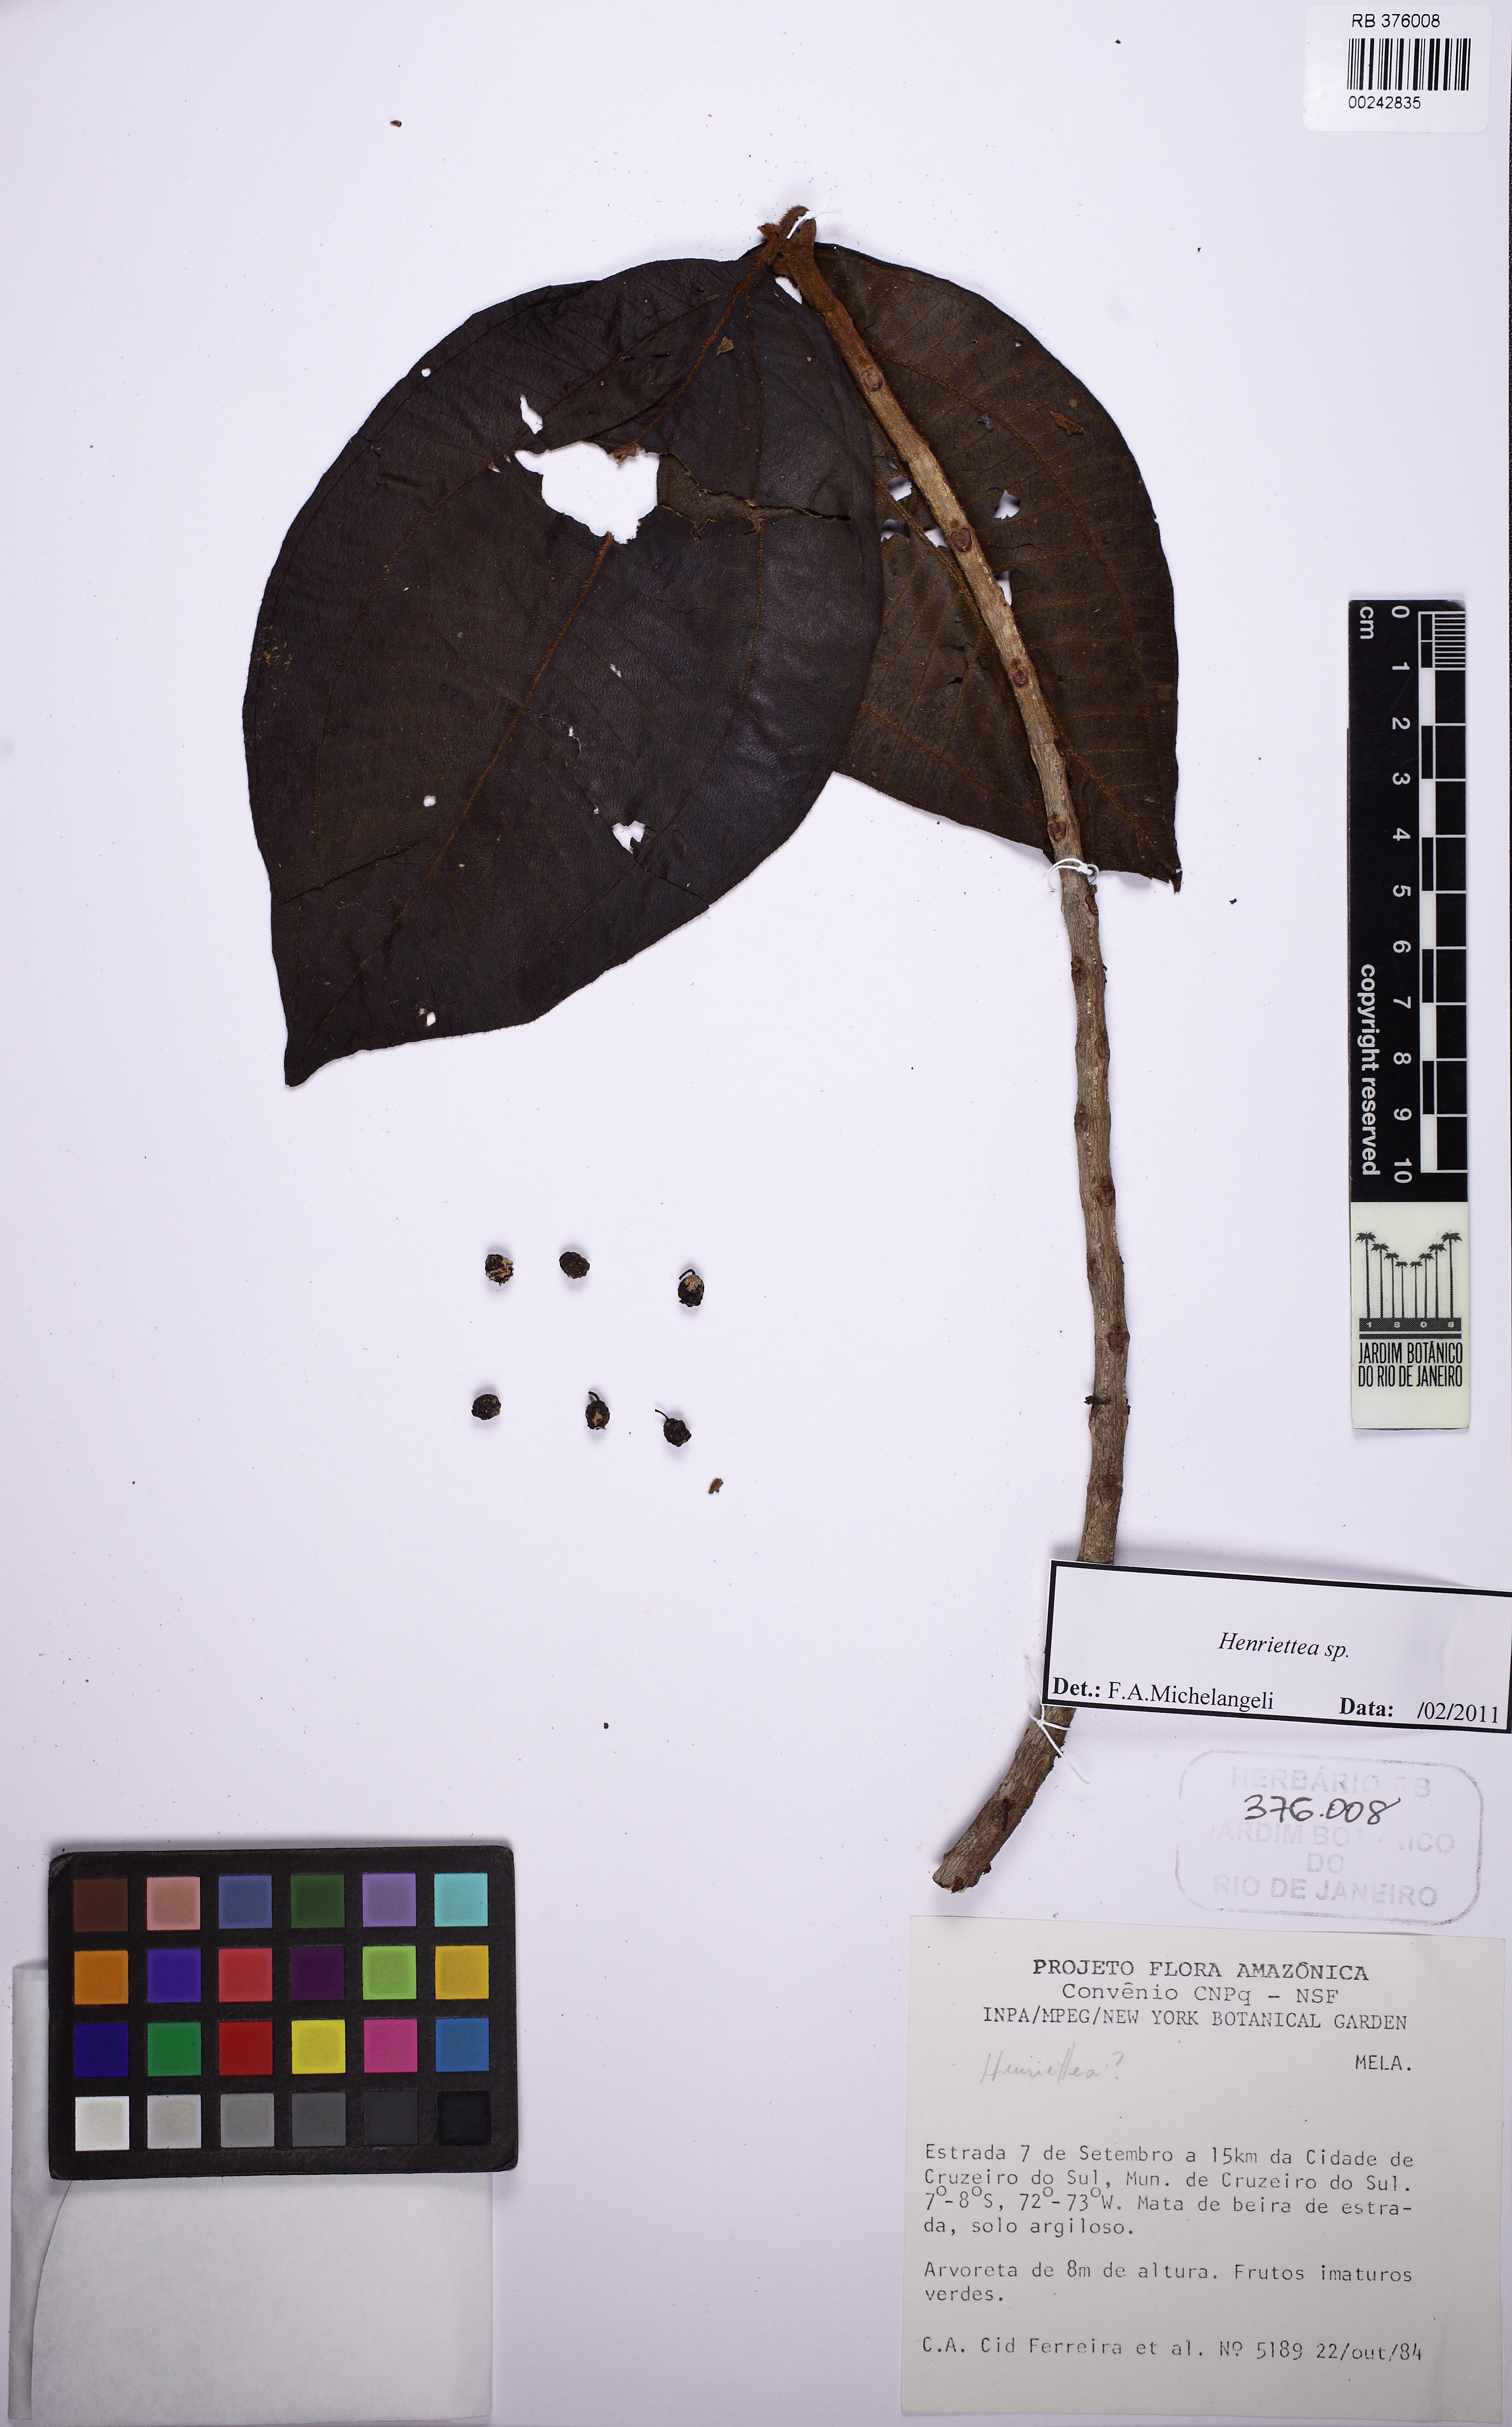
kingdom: Plantae
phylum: Tracheophyta
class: Magnoliopsida
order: Myrtales
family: Melastomataceae
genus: Henriettea
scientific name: Henriettea membranifolia
